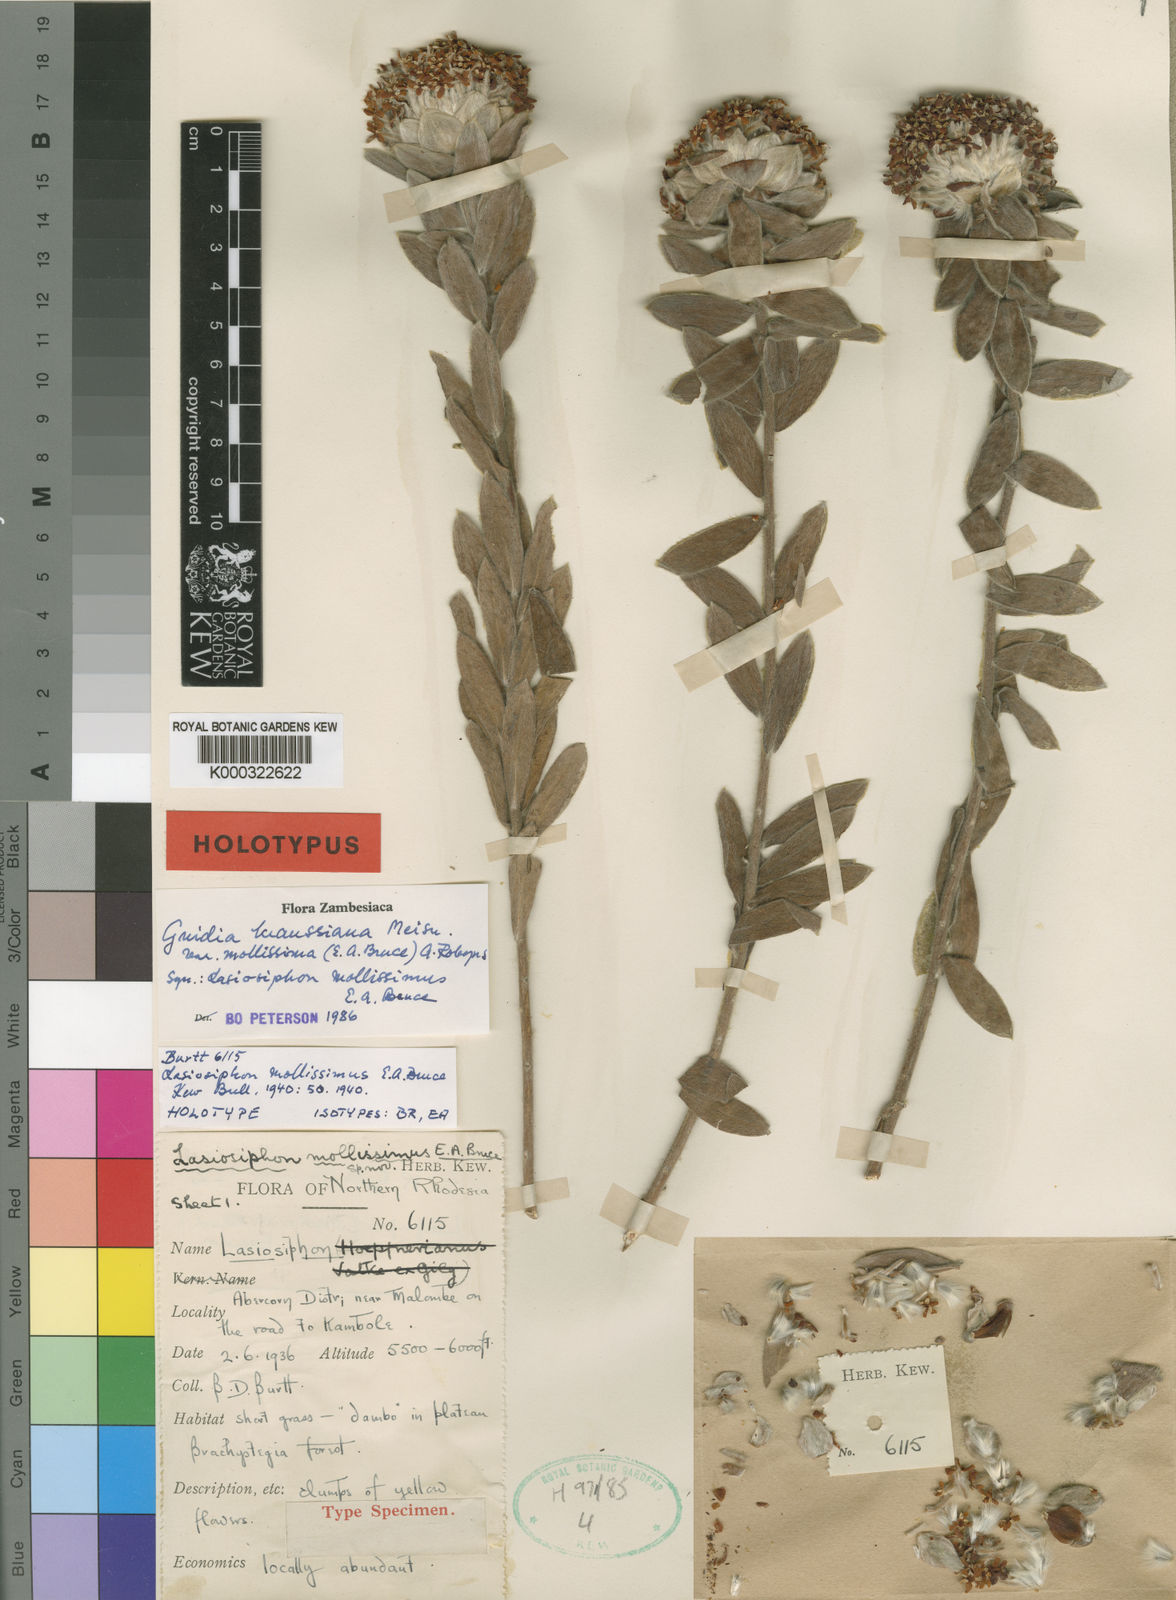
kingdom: Plantae
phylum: Tracheophyta
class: Magnoliopsida
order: Malvales
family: Thymelaeaceae
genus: Gnidia
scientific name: Gnidia kraussiana
